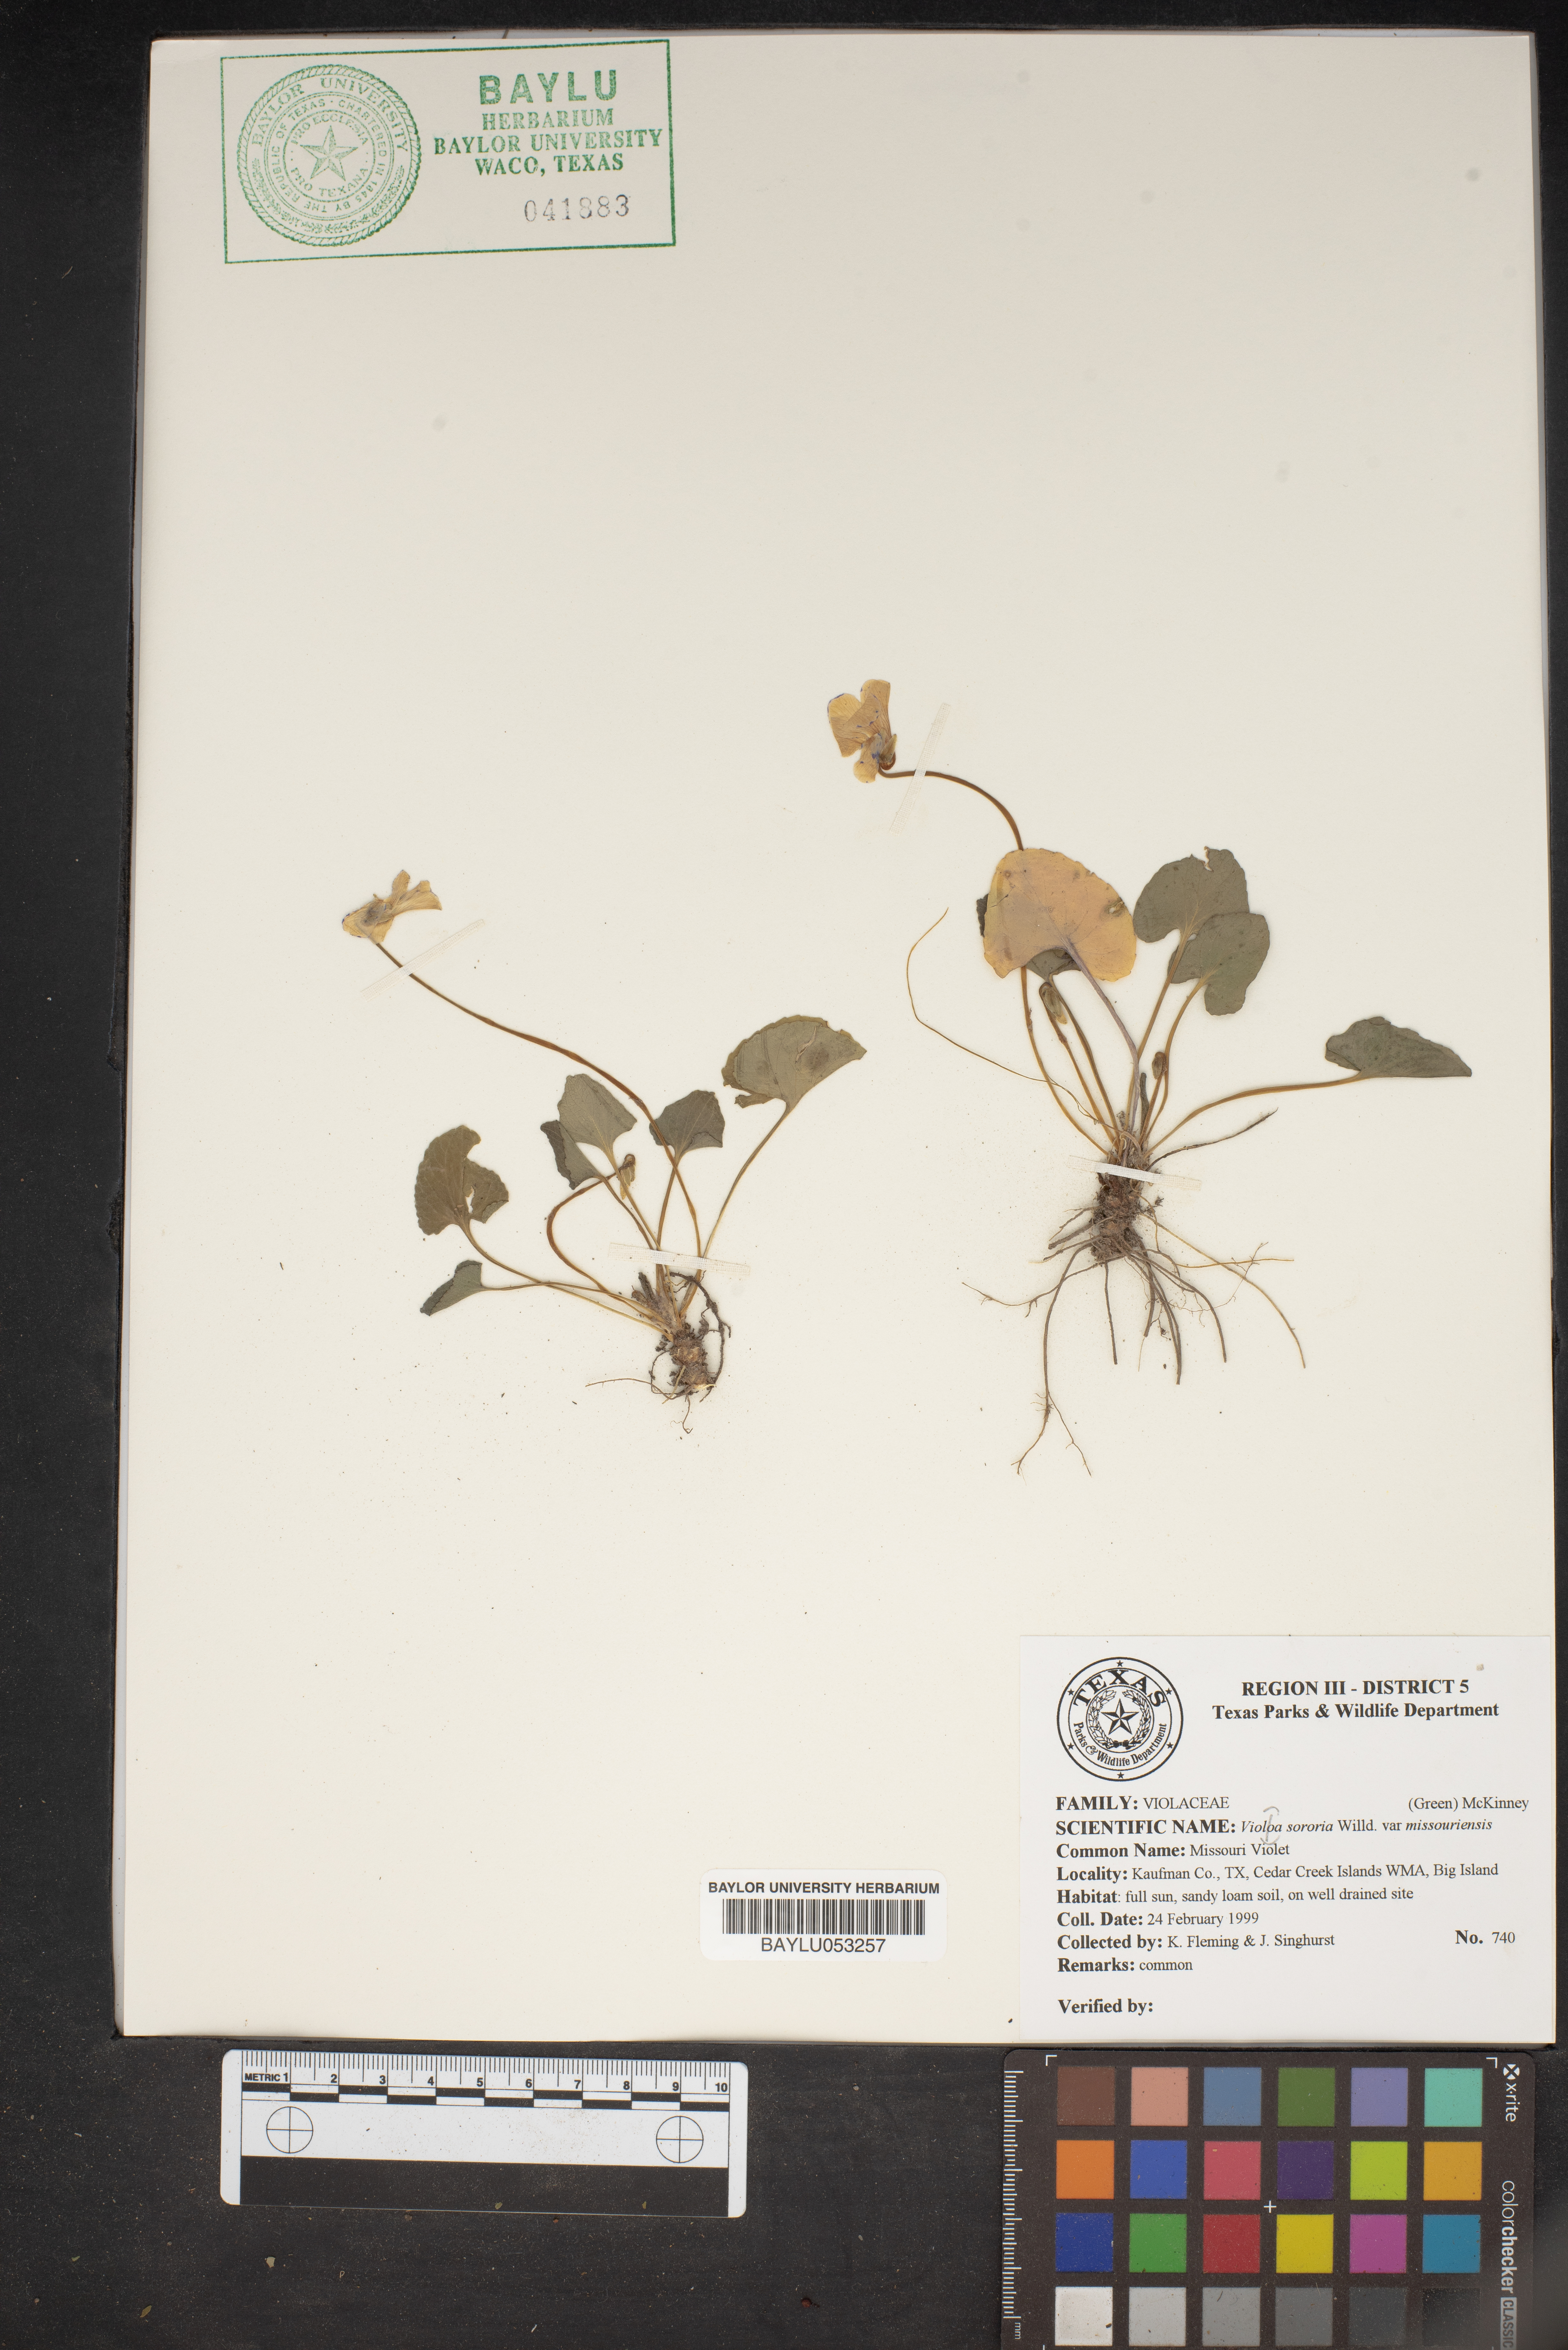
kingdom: Plantae
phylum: Tracheophyta
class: Magnoliopsida
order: Malpighiales
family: Violaceae
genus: Viola
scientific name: Viola missouriensis
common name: Missouri violet
